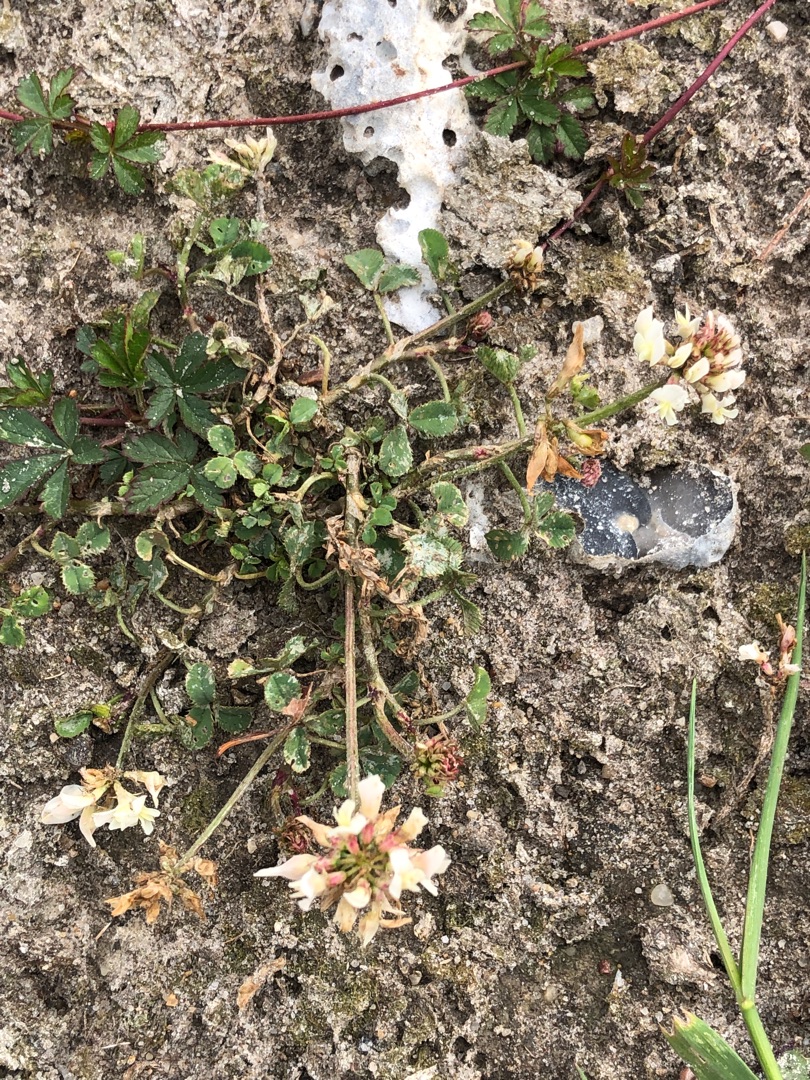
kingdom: Plantae
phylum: Tracheophyta
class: Magnoliopsida
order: Fabales
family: Fabaceae
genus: Trifolium
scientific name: Trifolium repens
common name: Hvid-kløver
